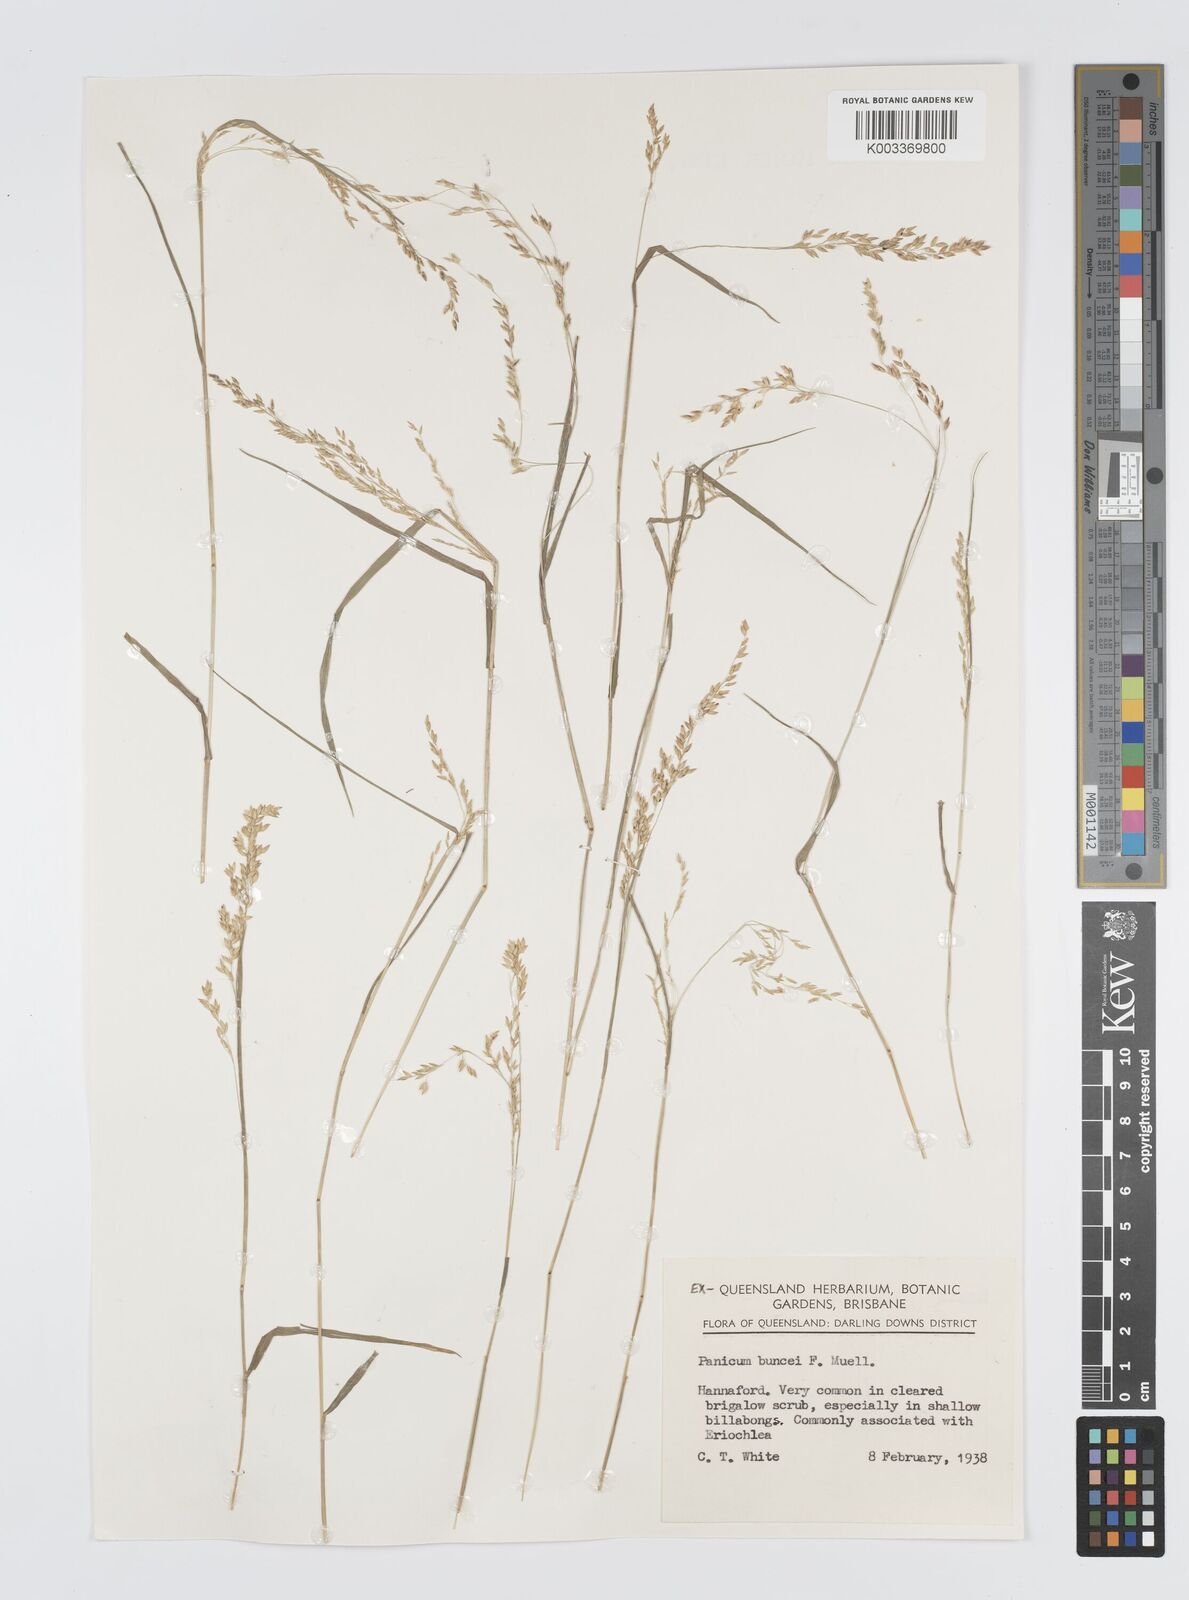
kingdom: Plantae
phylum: Tracheophyta
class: Liliopsida
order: Poales
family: Poaceae
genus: Panicum
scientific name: Panicum buncei
